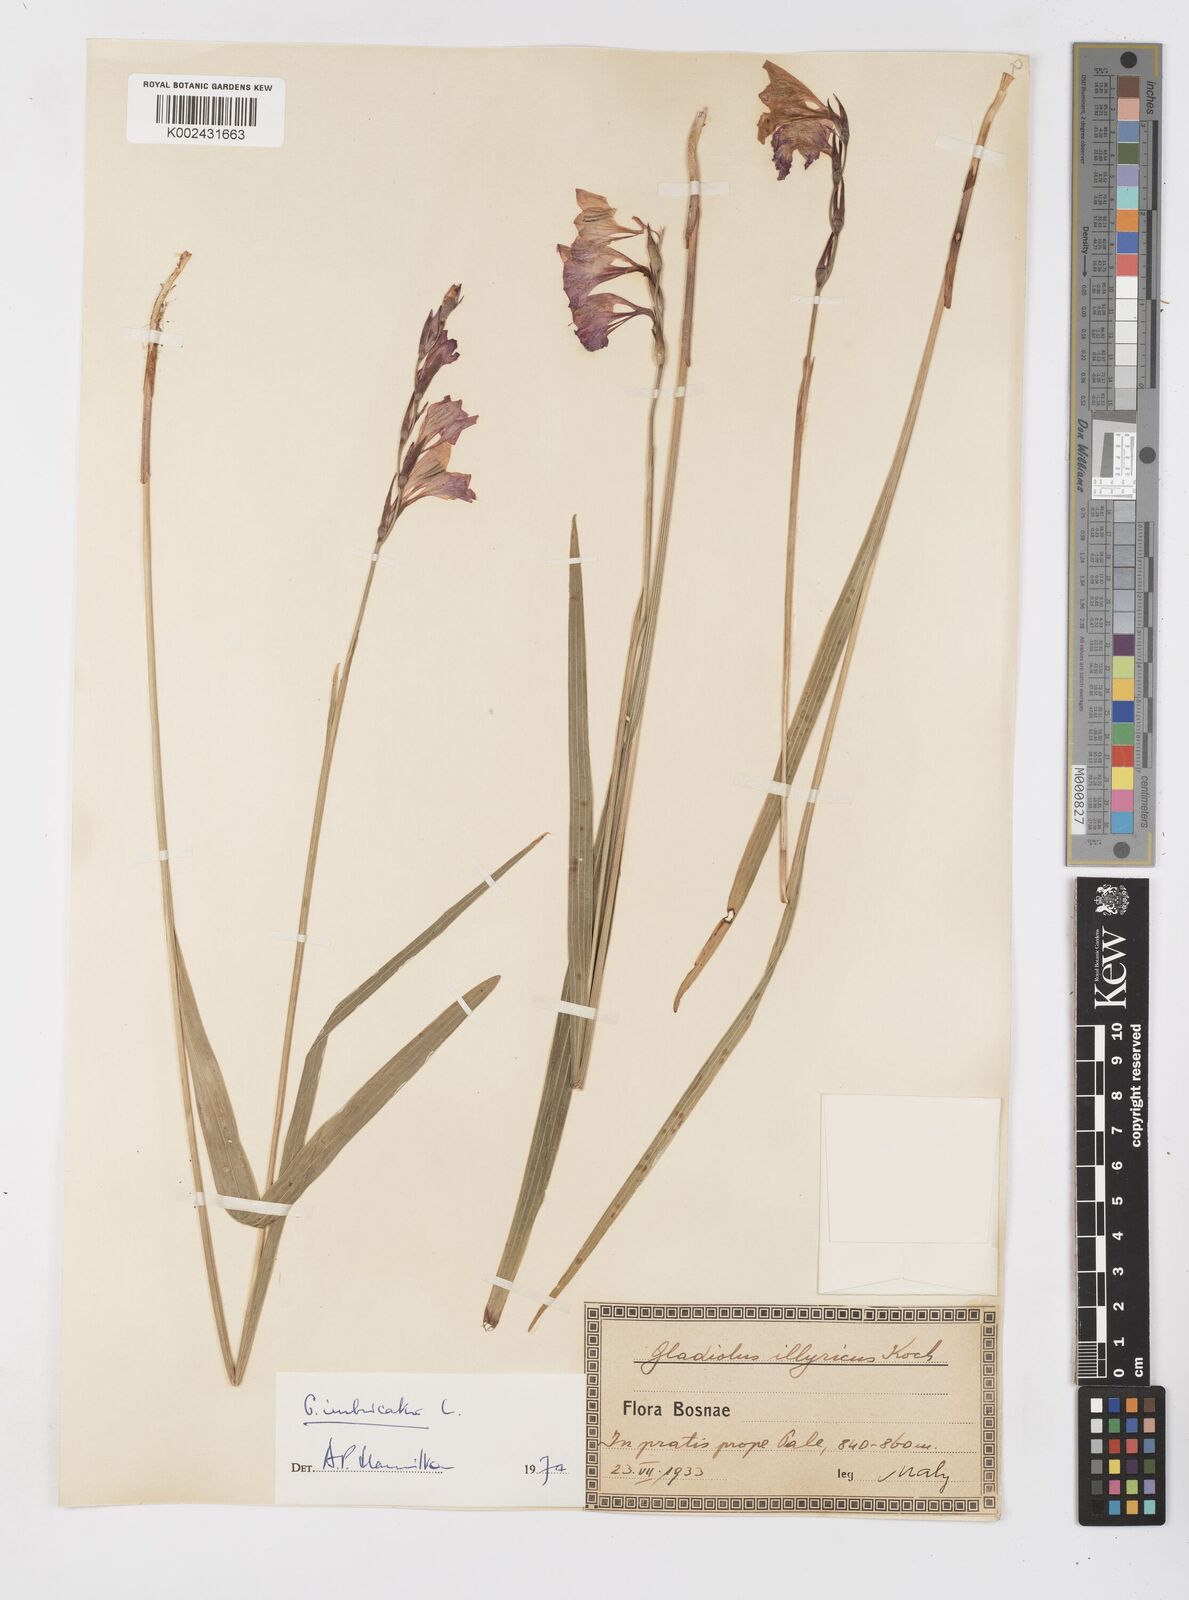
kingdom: Plantae
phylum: Tracheophyta
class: Liliopsida
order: Asparagales
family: Iridaceae
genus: Gladiolus
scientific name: Gladiolus imbricatus
